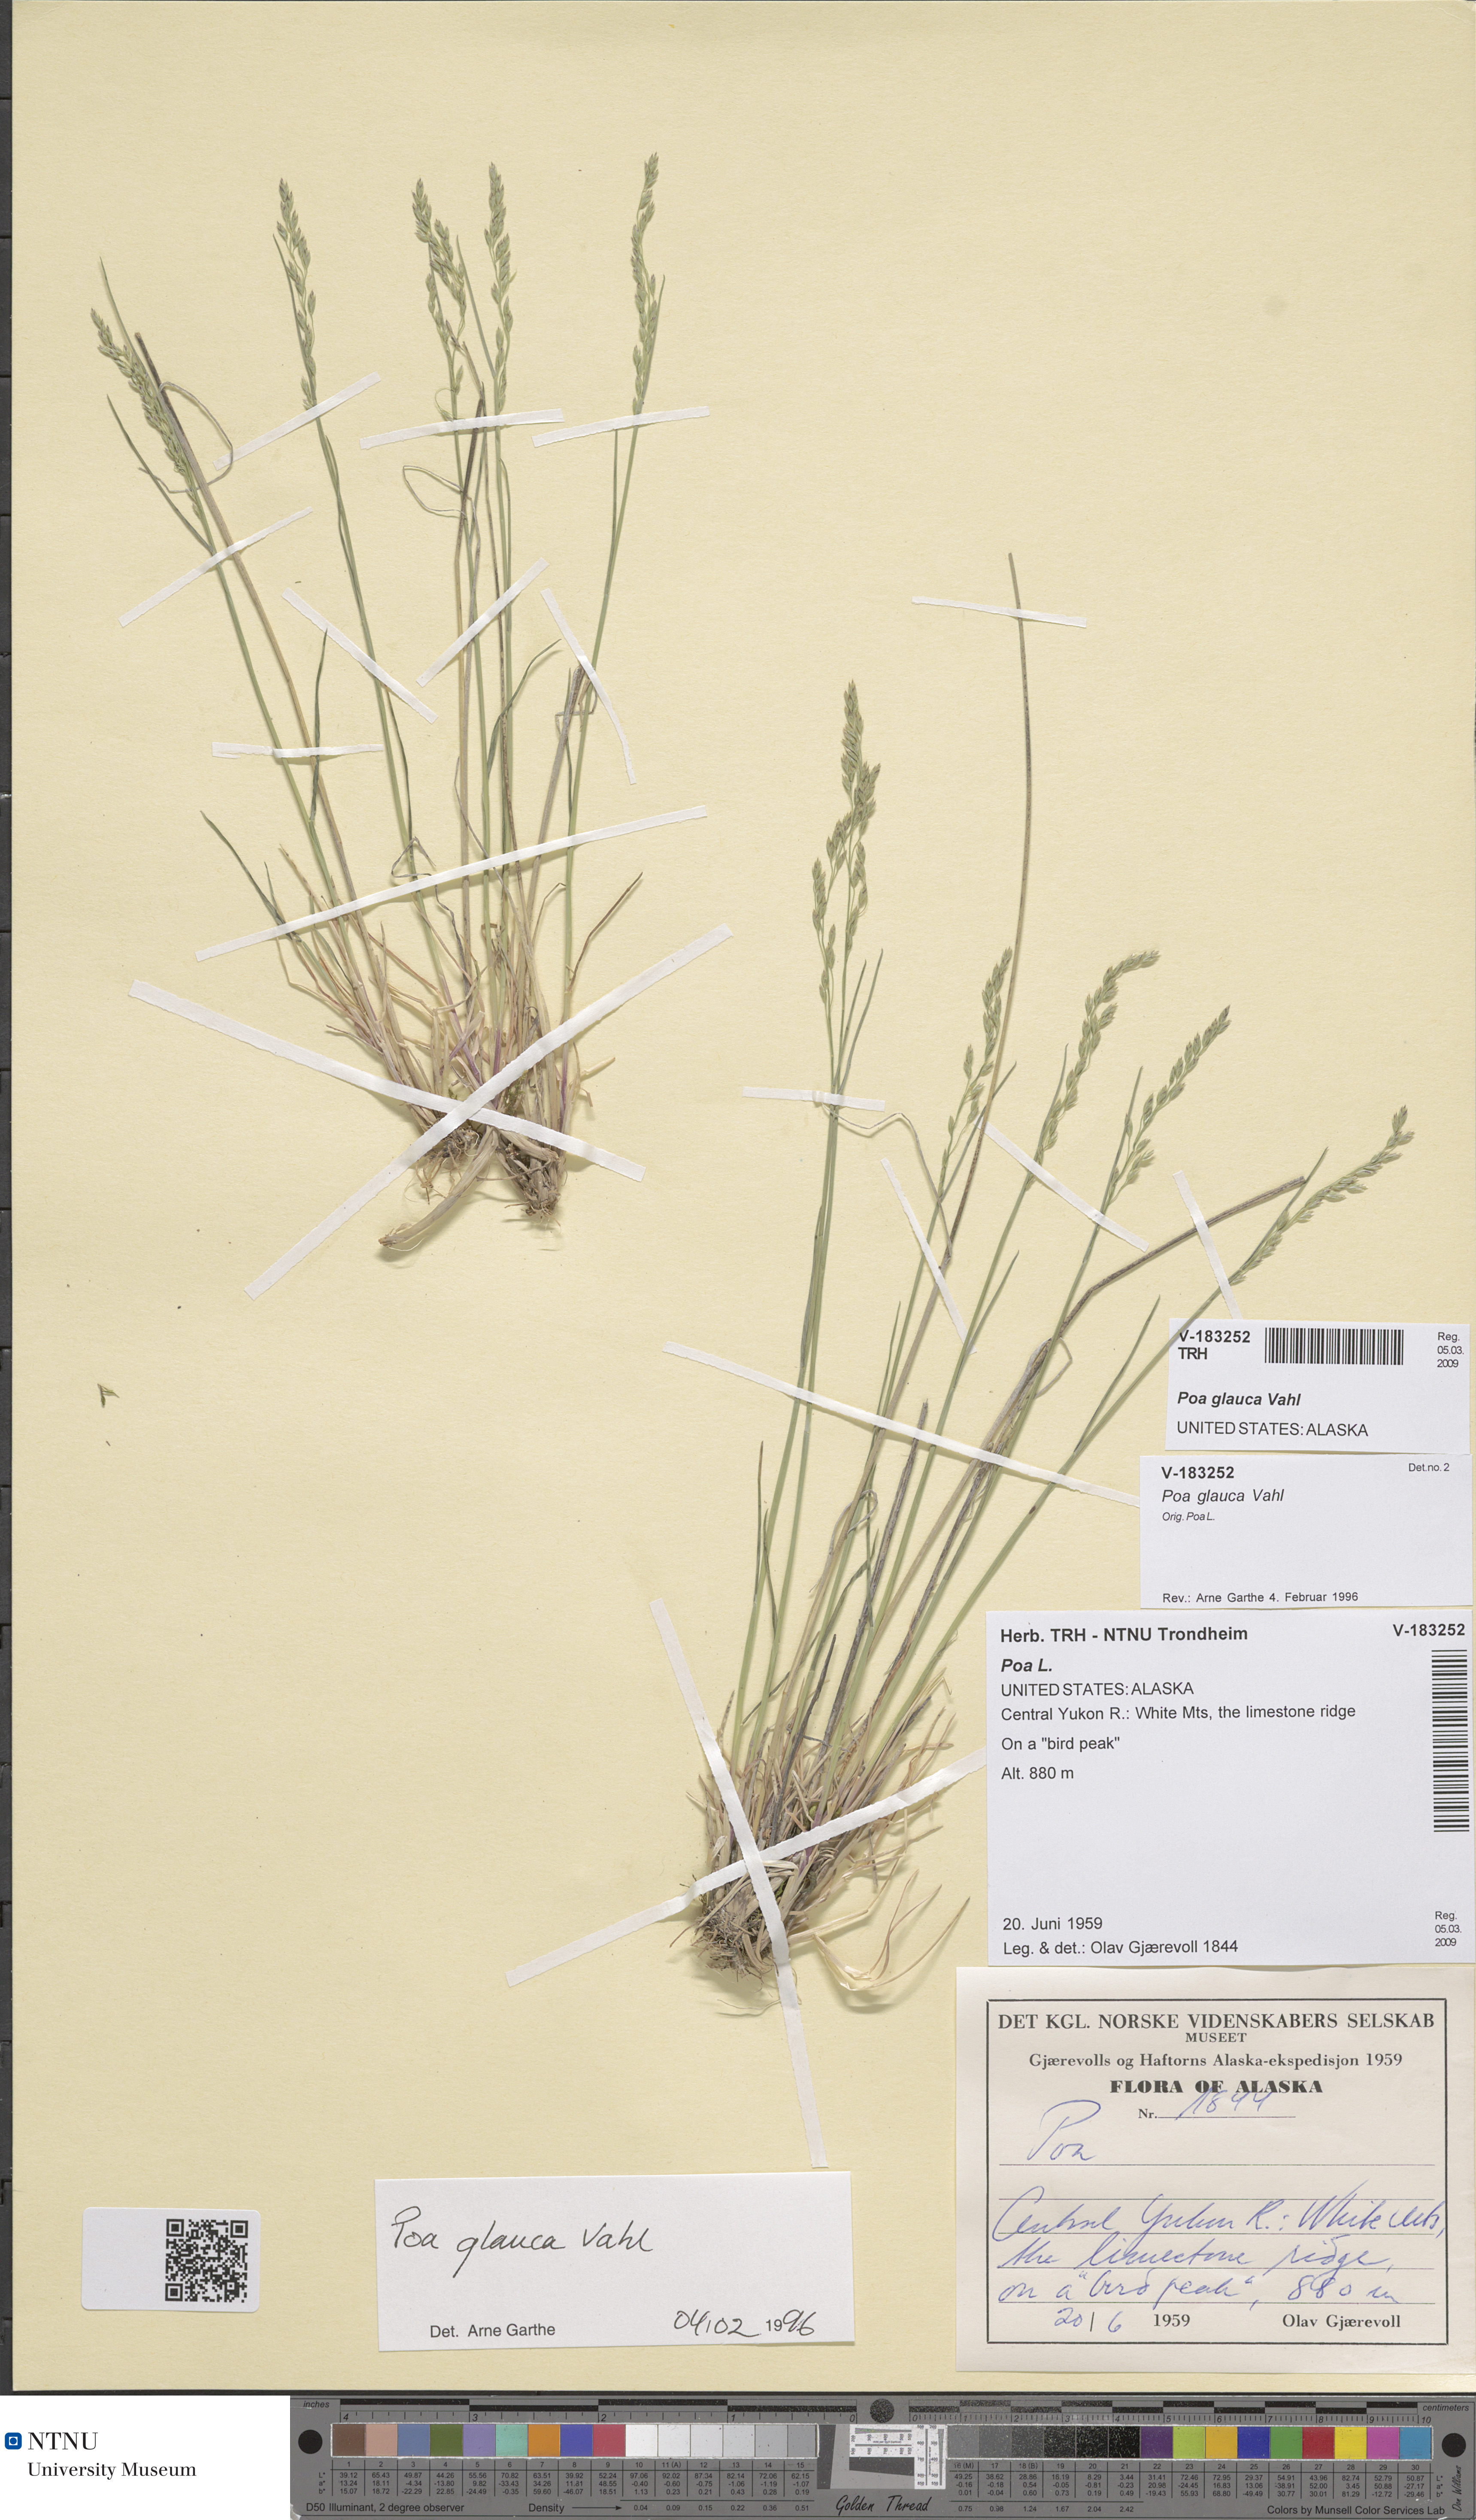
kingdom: Plantae
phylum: Tracheophyta
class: Liliopsida
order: Poales
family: Poaceae
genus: Poa
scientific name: Poa glauca
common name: Glaucous bluegrass
